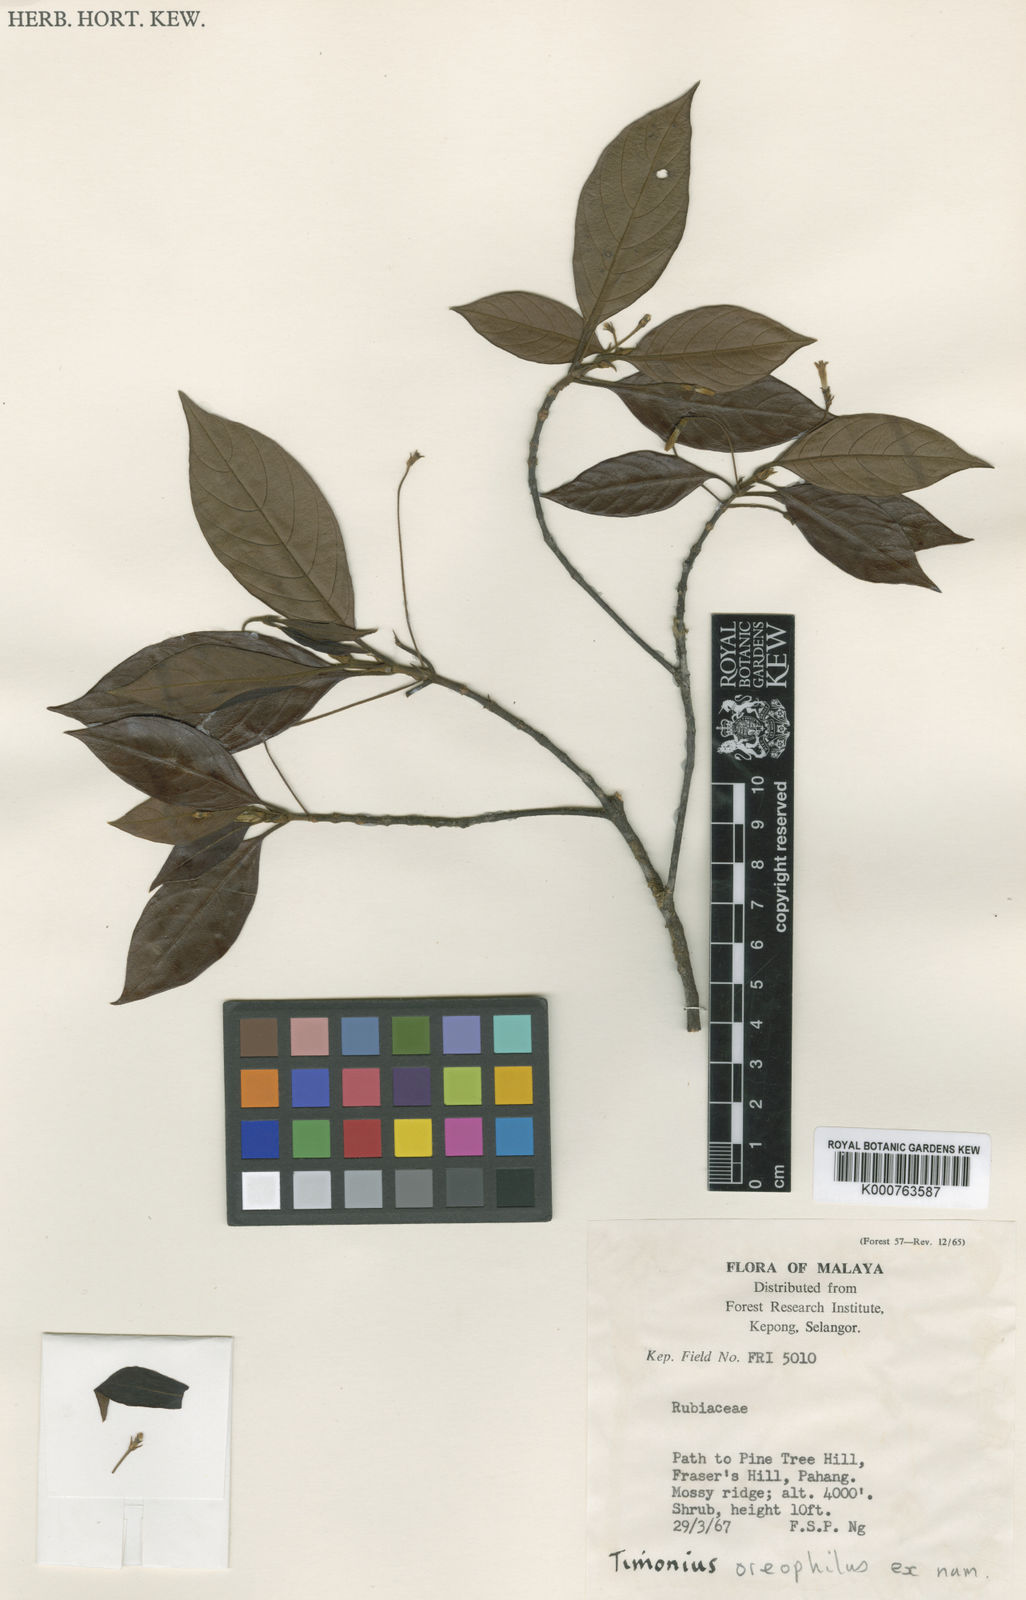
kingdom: Plantae
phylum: Tracheophyta
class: Magnoliopsida
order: Gentianales
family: Rubiaceae
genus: Timonius
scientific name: Timonius oreophilus
